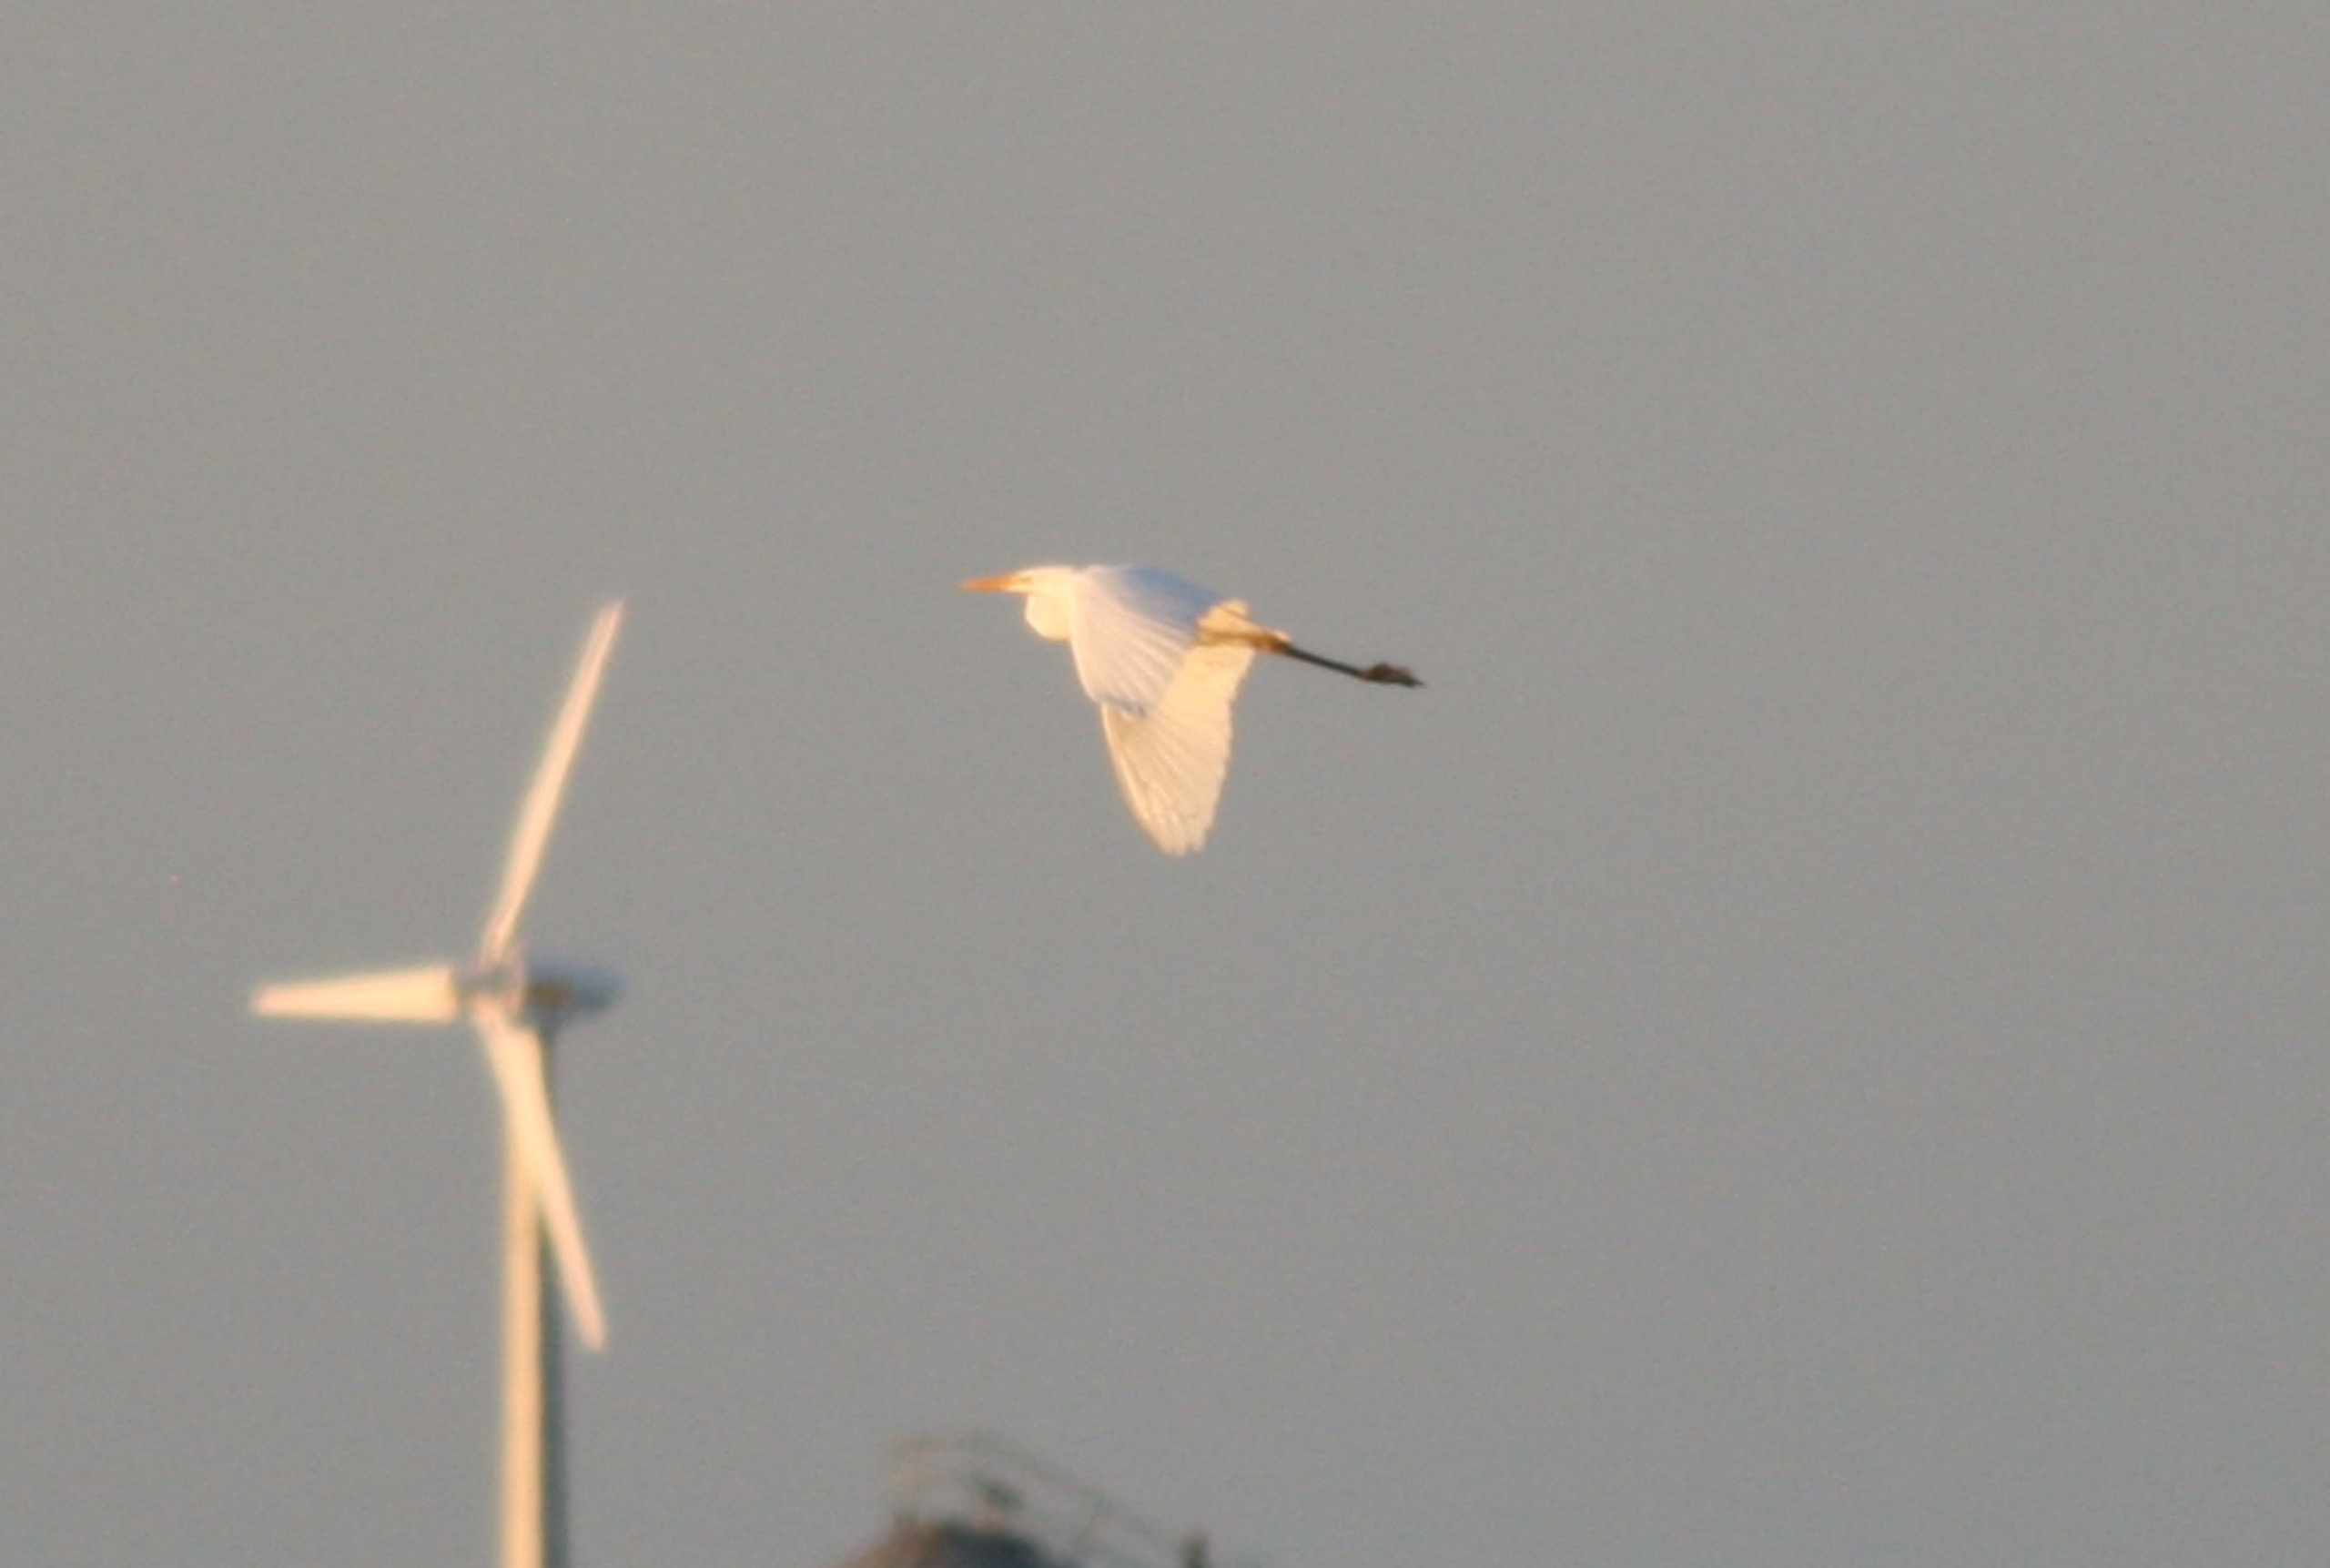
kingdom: Animalia
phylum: Chordata
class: Aves
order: Pelecaniformes
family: Ardeidae
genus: Ardea
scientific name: Ardea alba
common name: Sølvhejre
